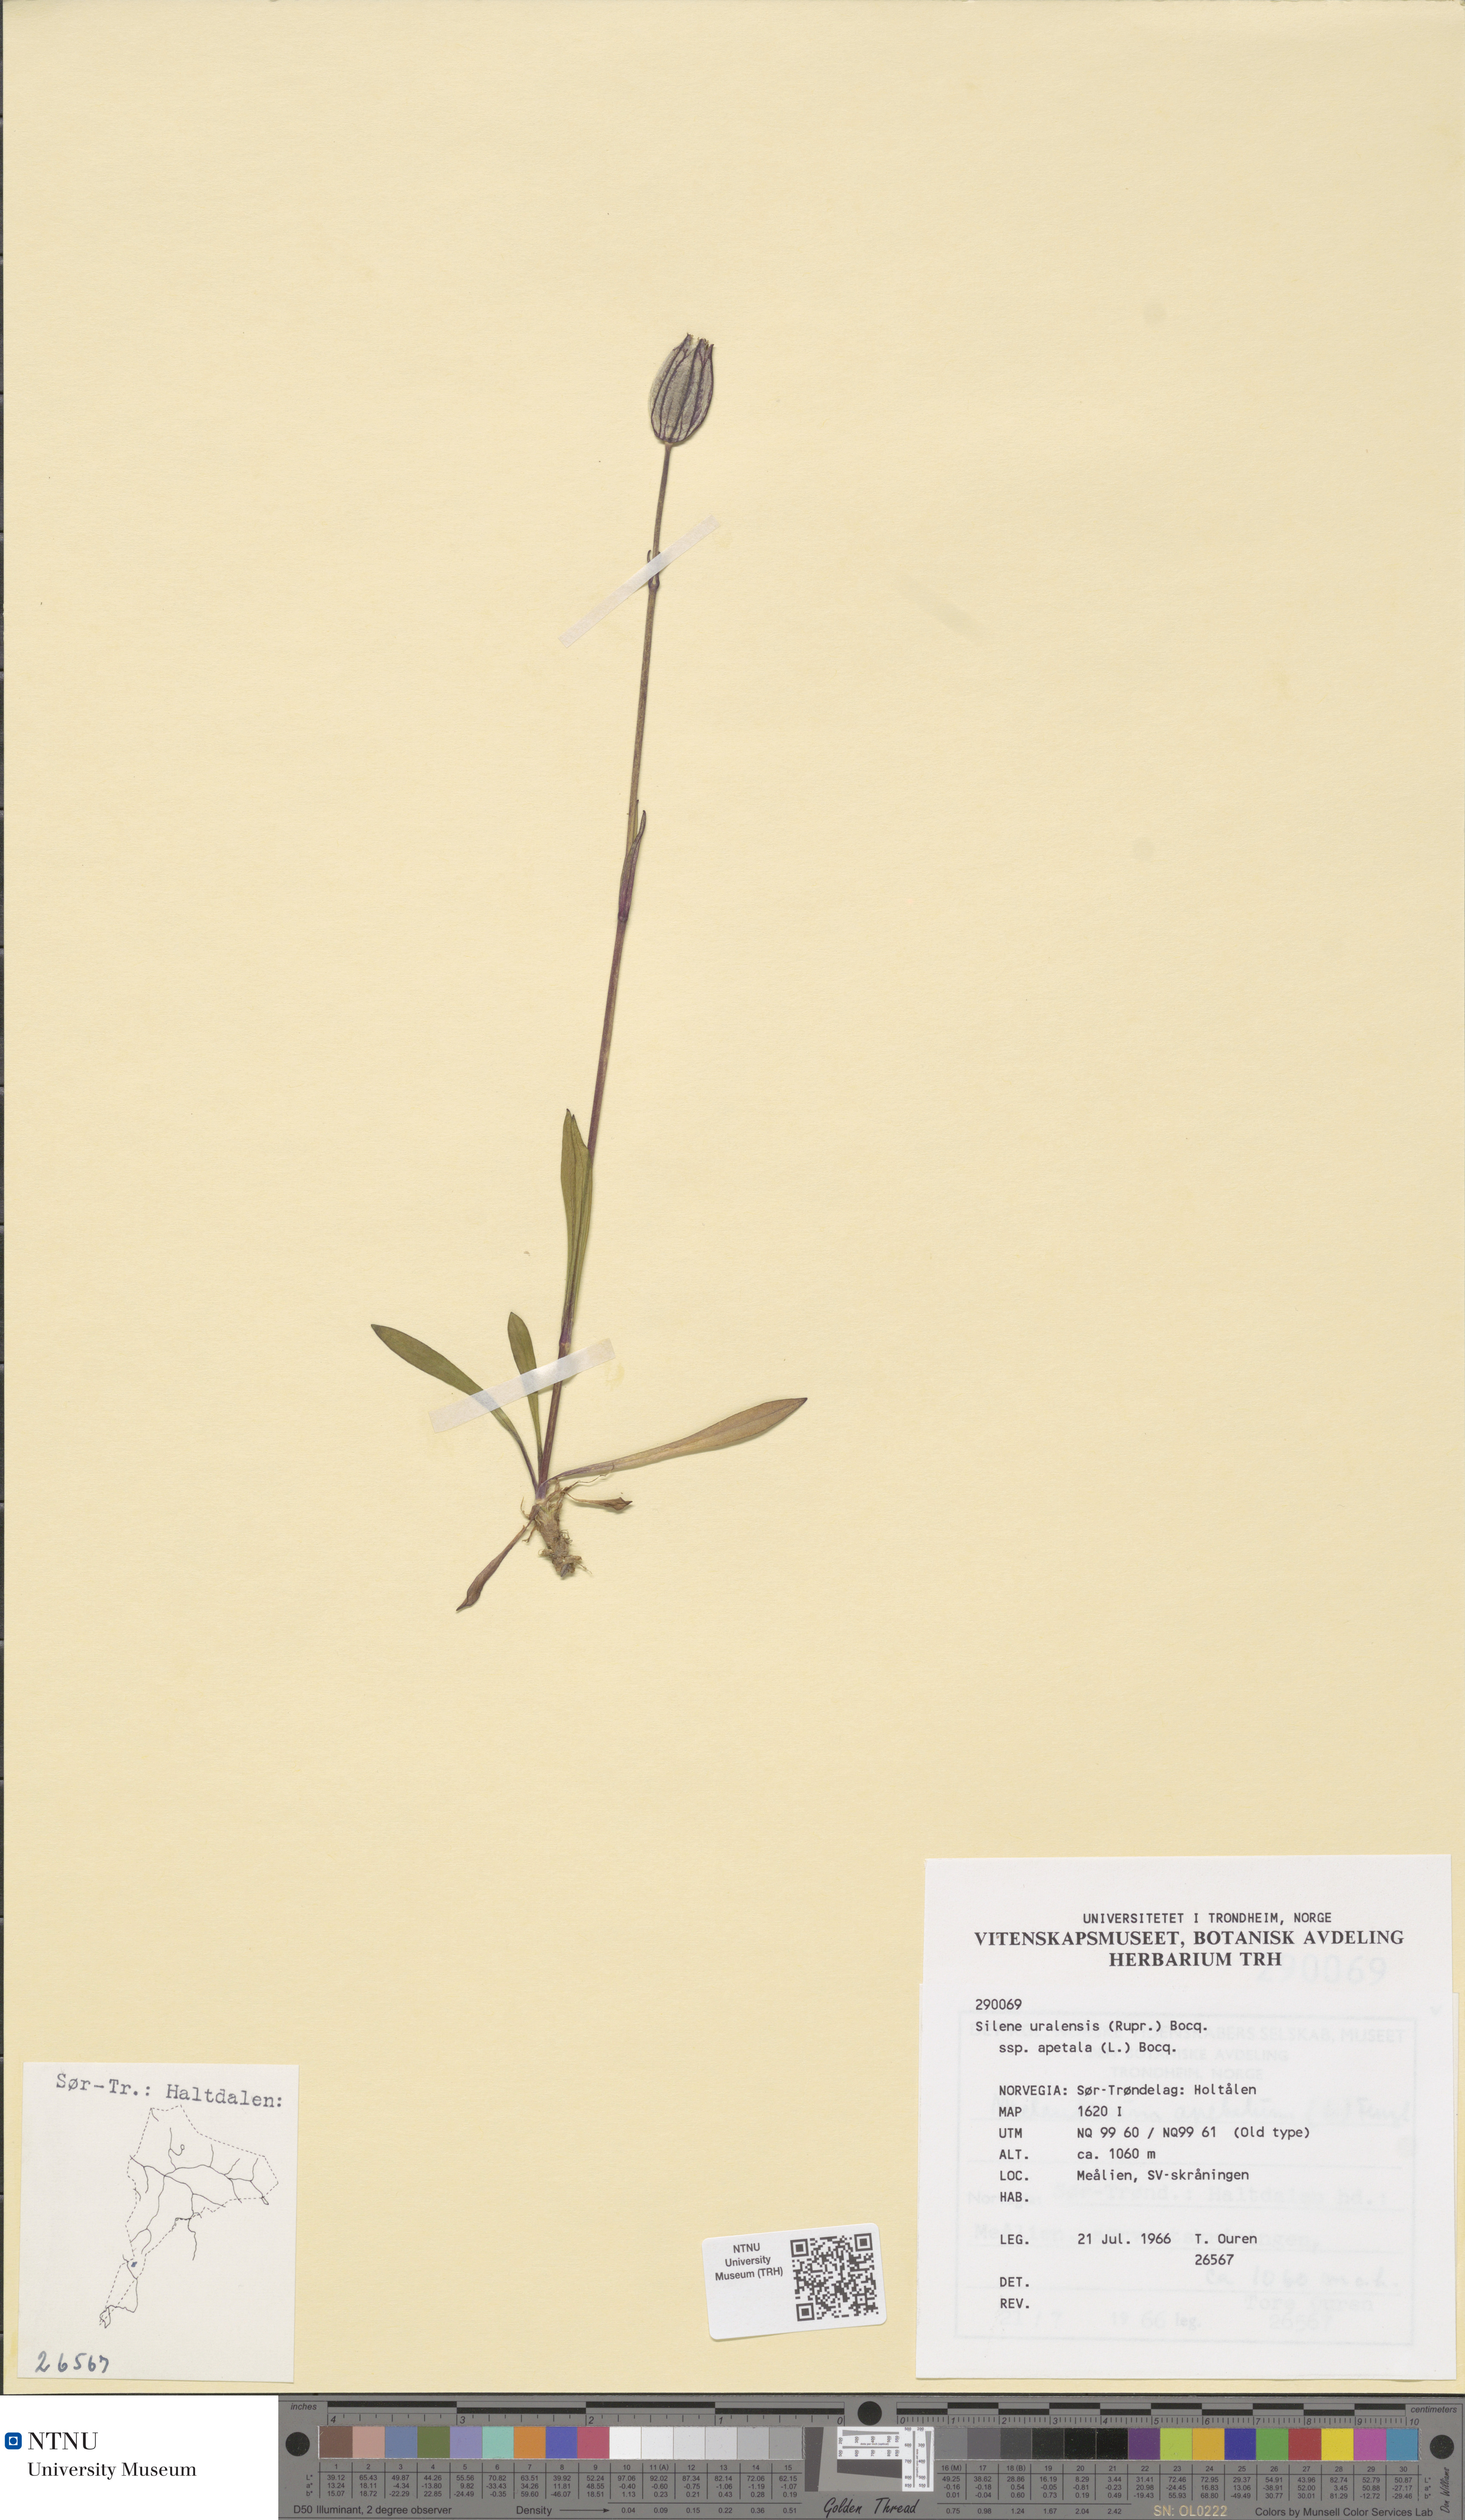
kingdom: Plantae
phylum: Tracheophyta
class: Magnoliopsida
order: Caryophyllales
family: Caryophyllaceae
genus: Silene
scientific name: Silene wahlbergella
